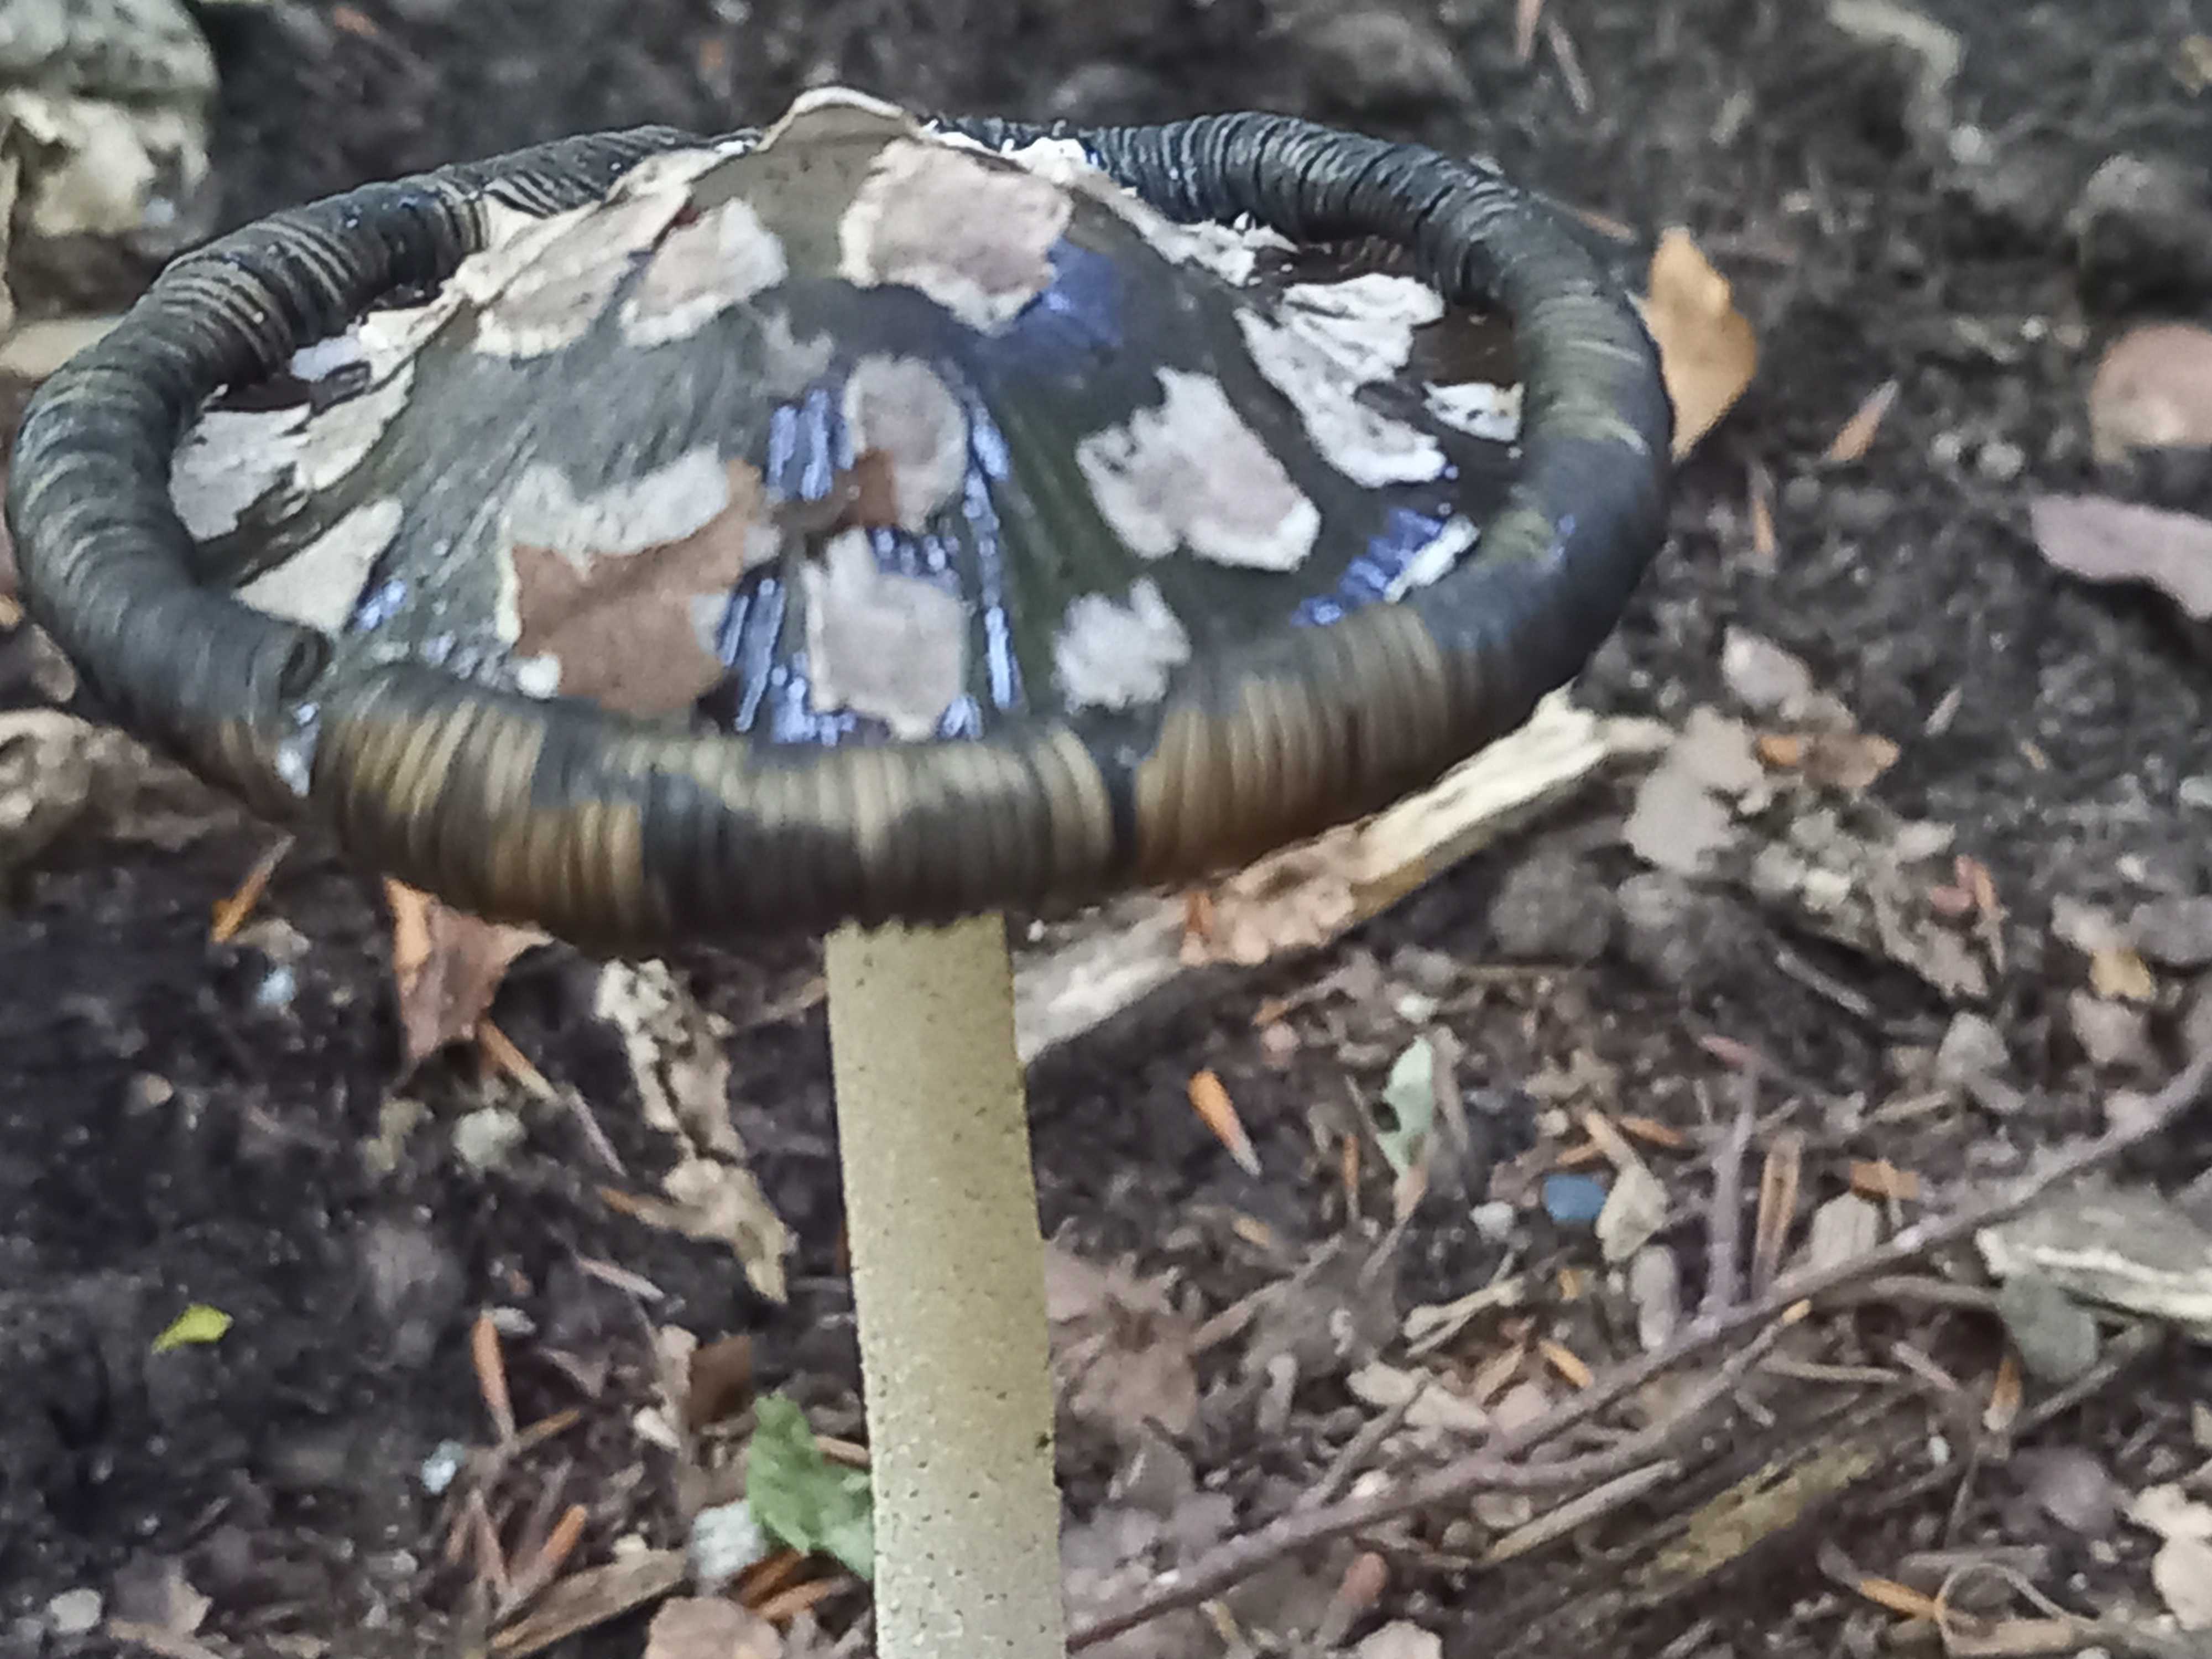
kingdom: Fungi
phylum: Basidiomycota
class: Agaricomycetes
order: Agaricales
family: Psathyrellaceae
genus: Coprinopsis
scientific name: Coprinopsis picacea
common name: skade-blækhat
